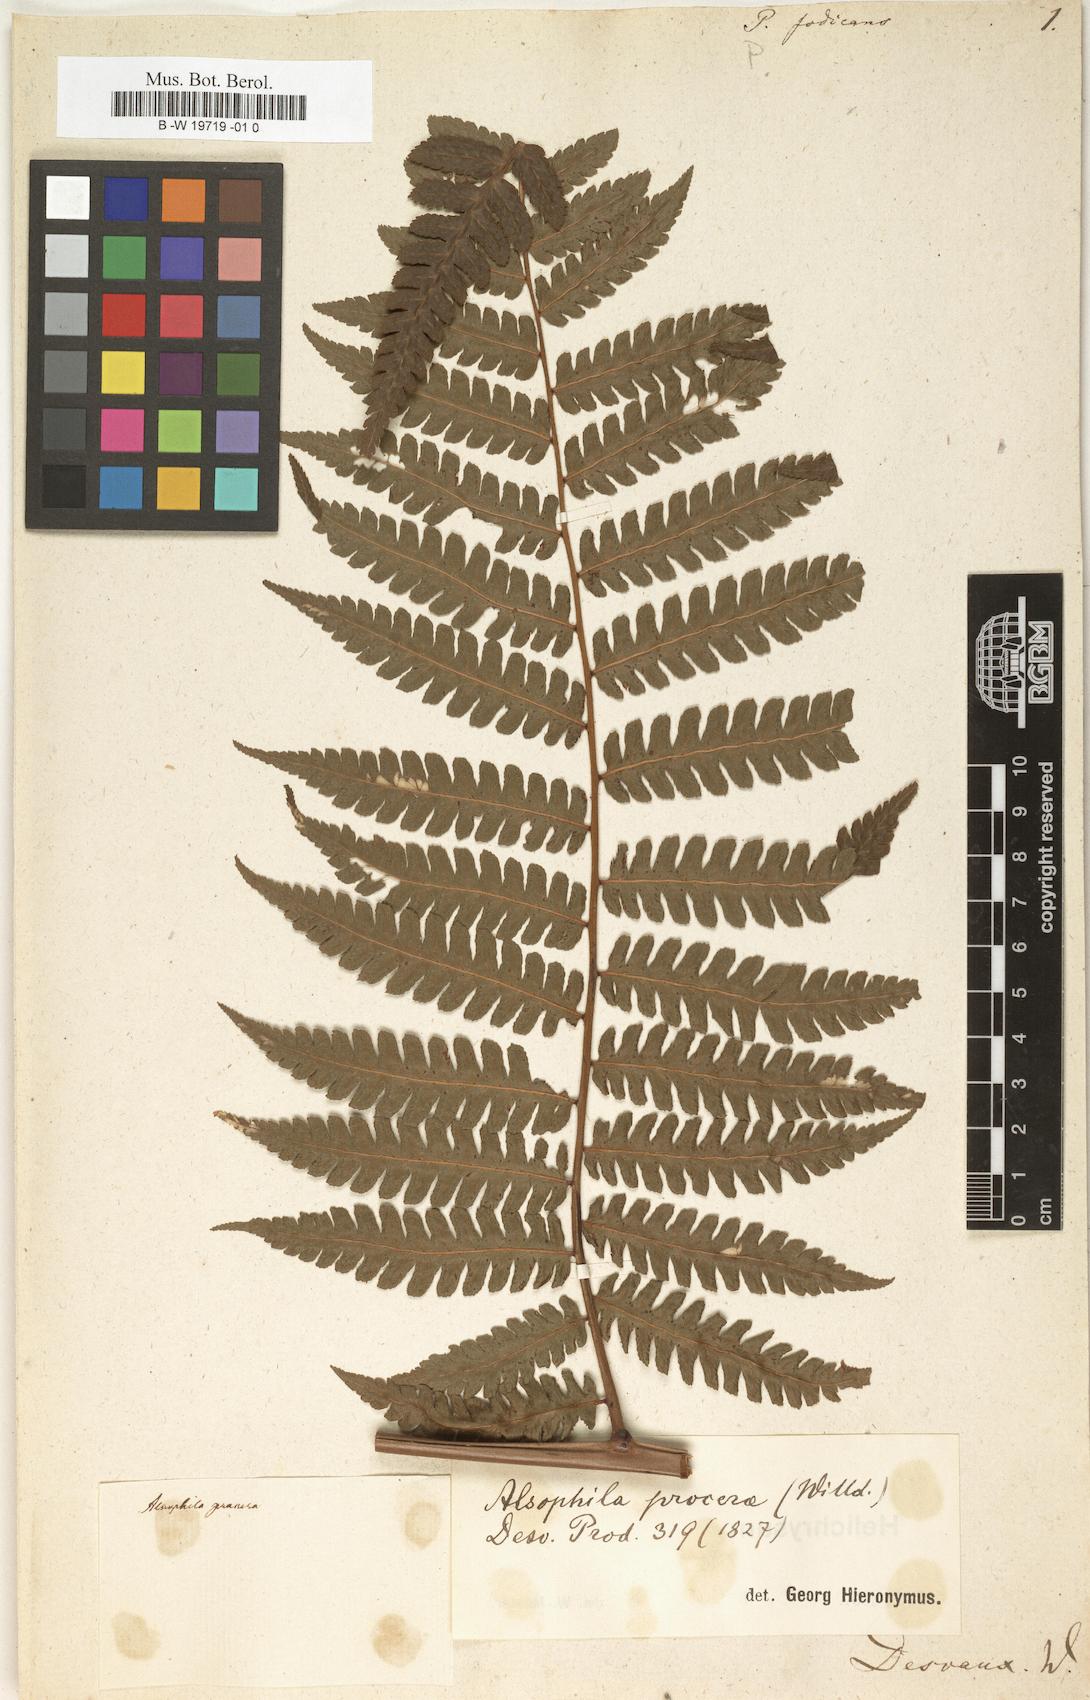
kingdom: Plantae
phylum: Tracheophyta
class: Polypodiopsida
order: Polypodiales
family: Polypodiaceae
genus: Polypodium
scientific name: Polypodium
